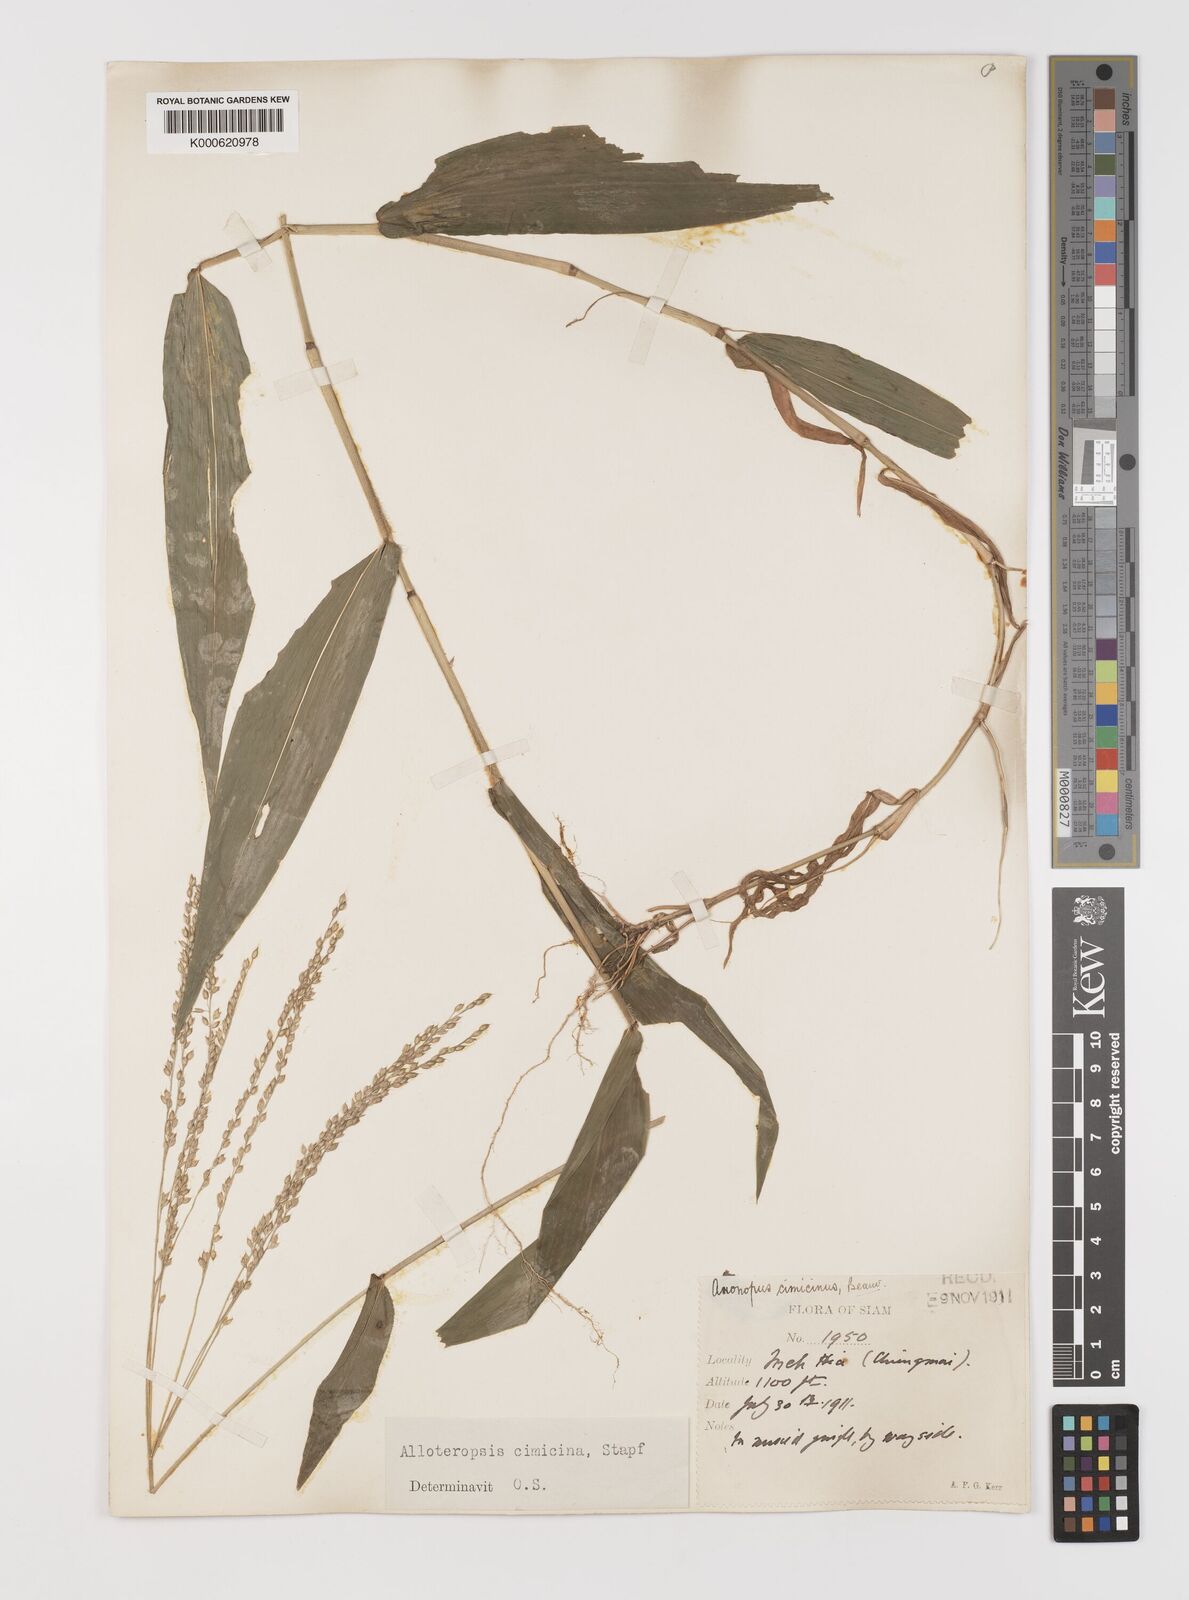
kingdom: Plantae
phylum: Tracheophyta
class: Liliopsida
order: Poales
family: Poaceae
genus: Alloteropsis
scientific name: Alloteropsis cimicina
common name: Summergrass
